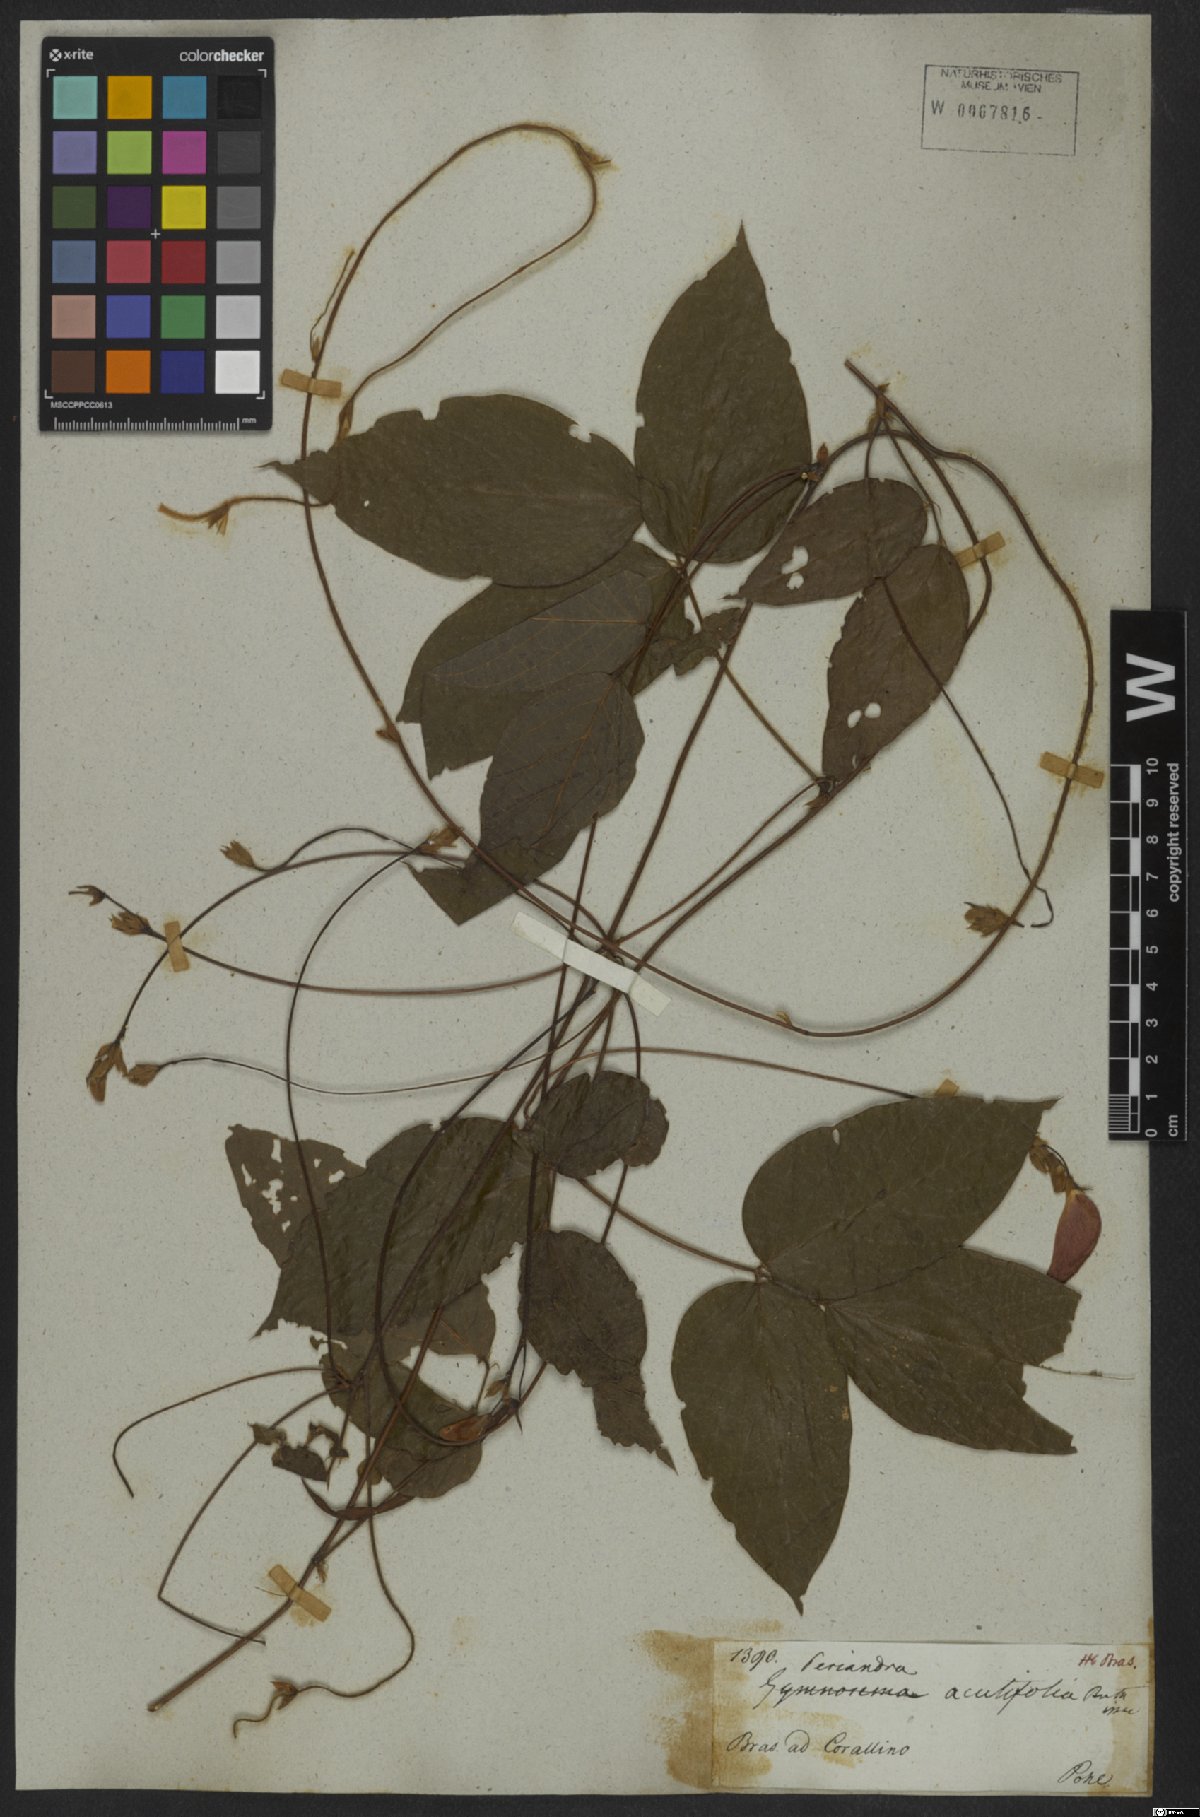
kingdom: Plantae
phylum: Tracheophyta
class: Magnoliopsida
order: Fabales
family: Fabaceae
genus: Periandra
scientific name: Periandra coccinea
